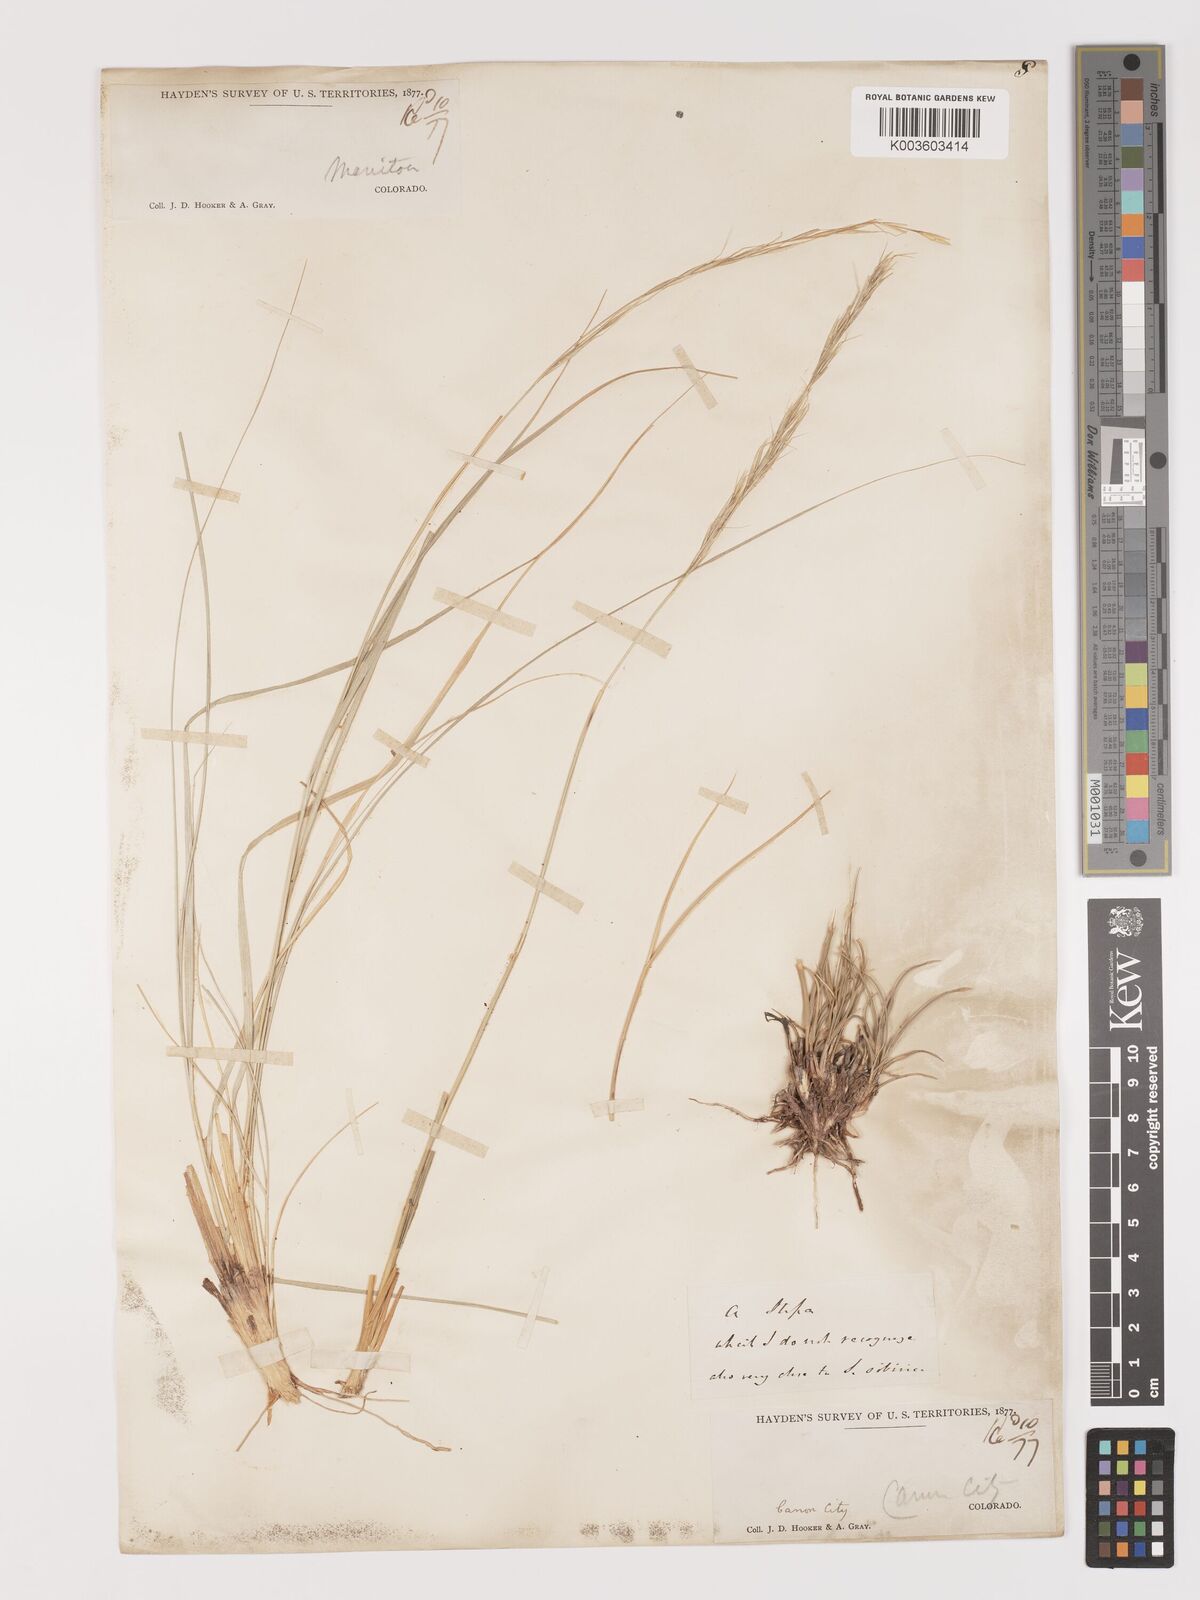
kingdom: Plantae
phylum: Tracheophyta
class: Liliopsida
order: Poales
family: Poaceae
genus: Eriocoma
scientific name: Eriocoma scribneri
